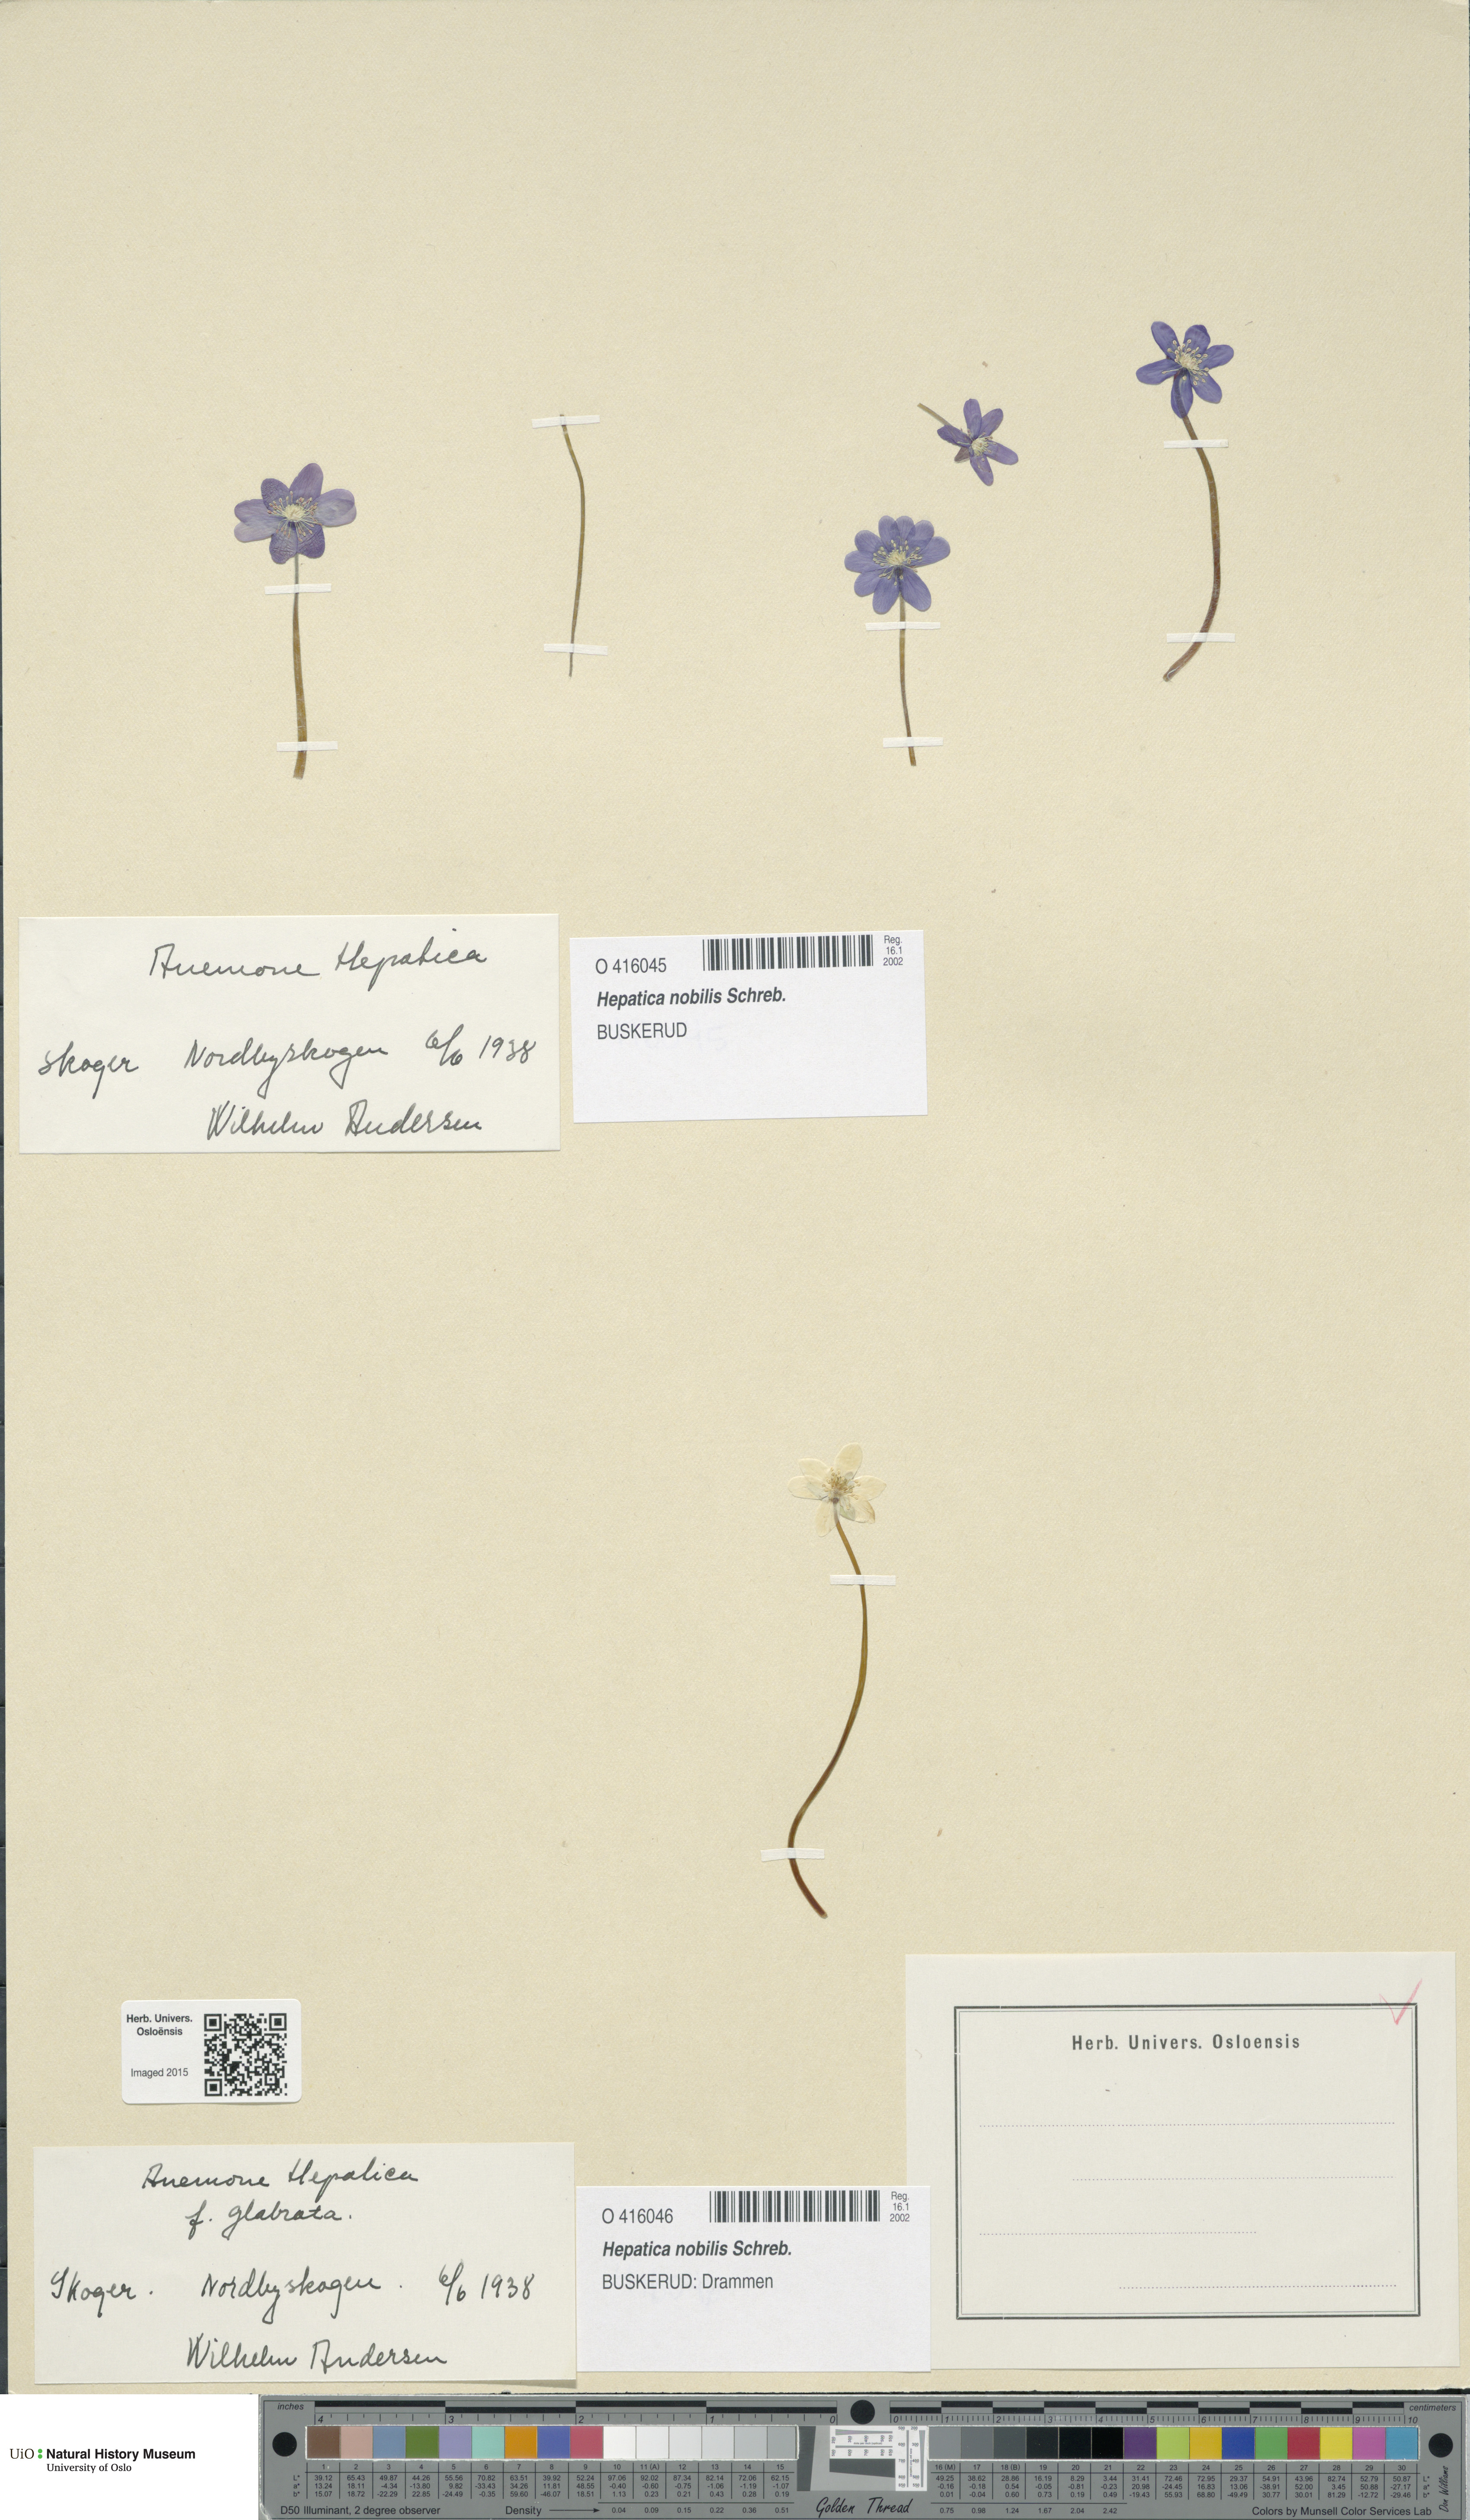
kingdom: Plantae
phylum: Tracheophyta
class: Magnoliopsida
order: Ranunculales
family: Ranunculaceae
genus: Hepatica
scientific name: Hepatica nobilis
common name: Liverleaf
